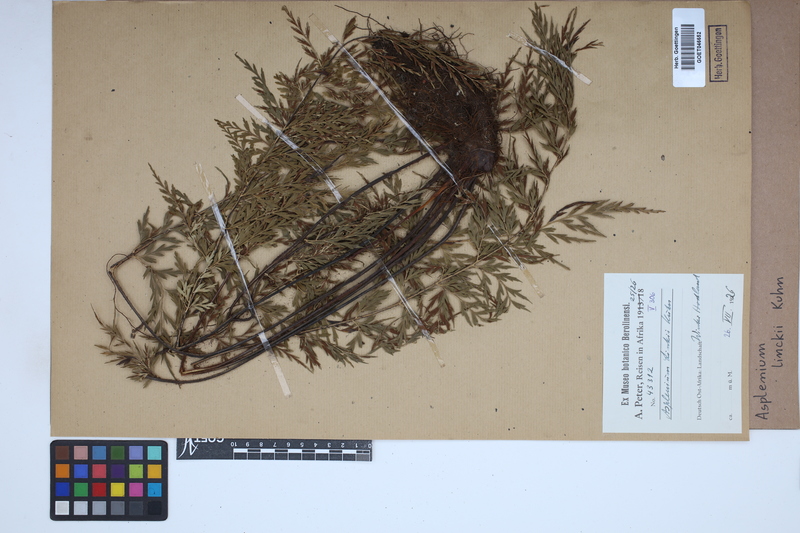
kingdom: Plantae
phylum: Tracheophyta
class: Polypodiopsida
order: Polypodiales
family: Aspleniaceae
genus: Asplenium
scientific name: Asplenium linckii
